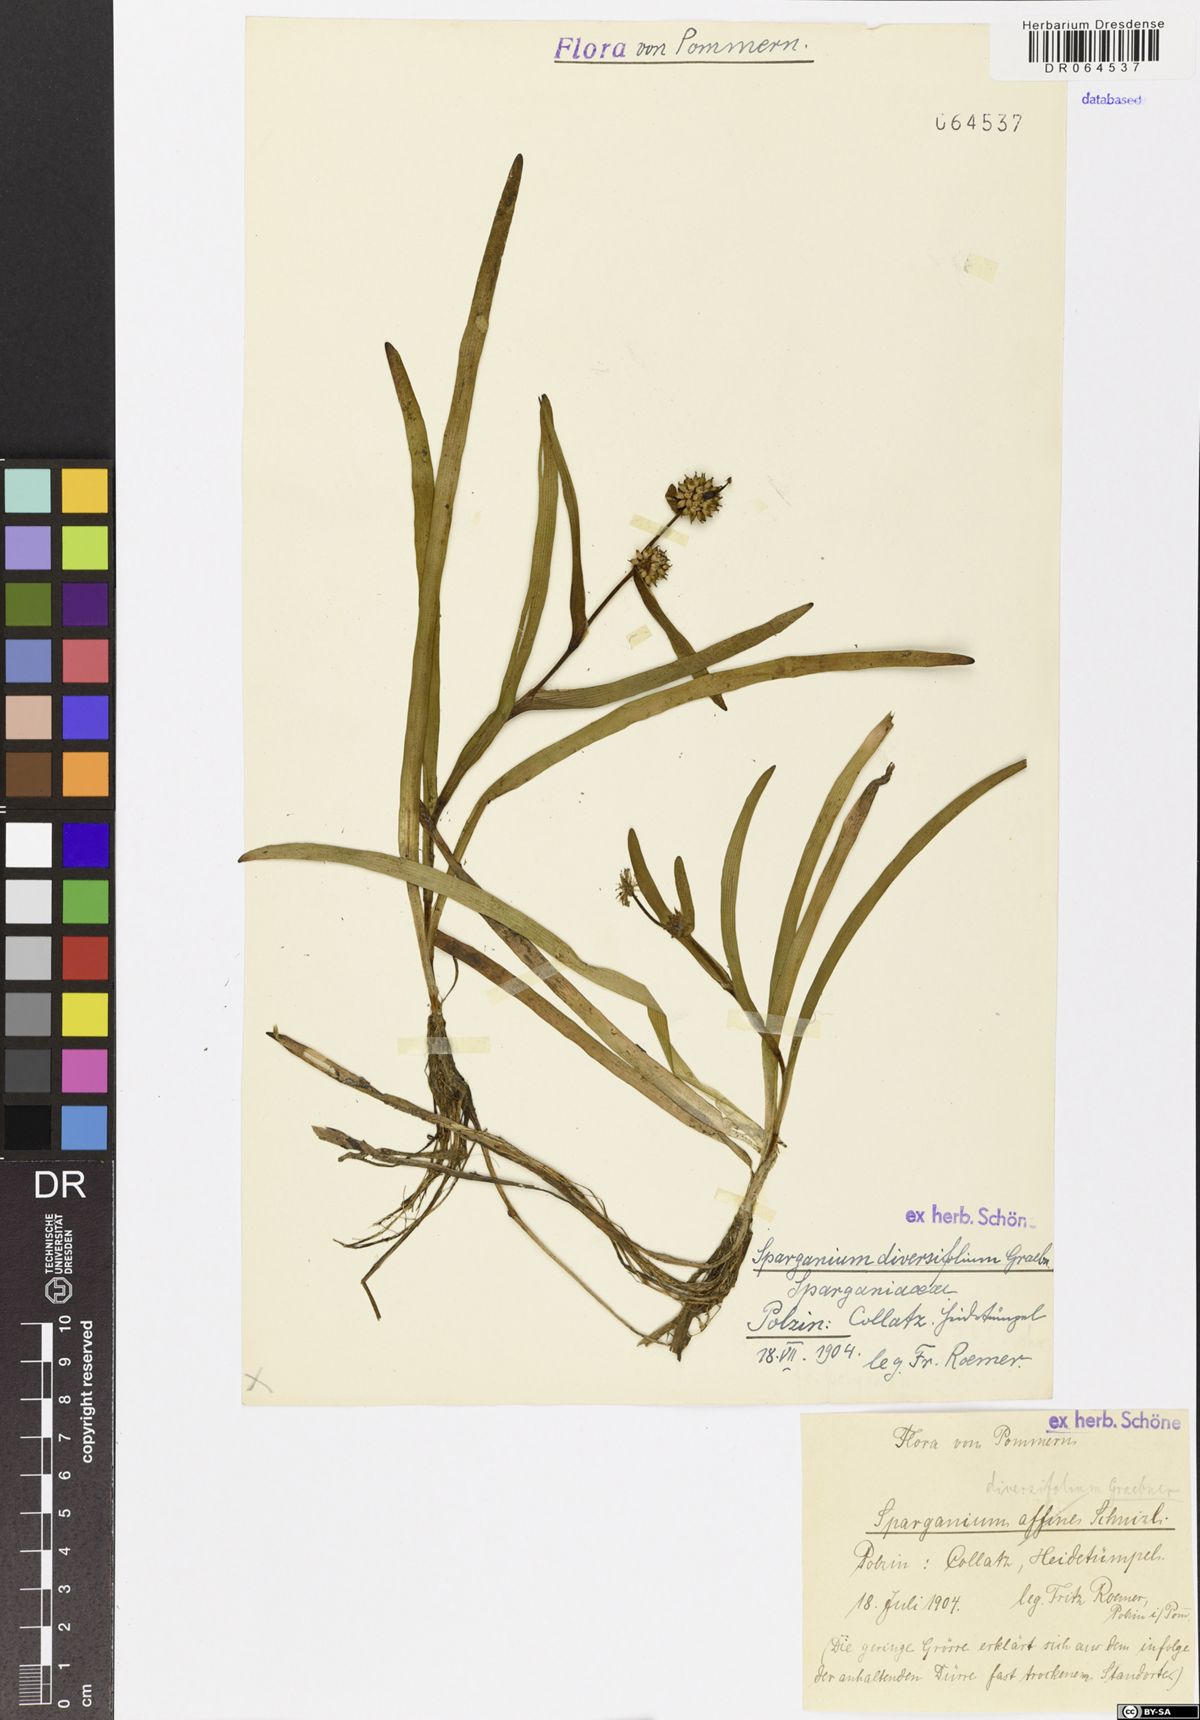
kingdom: Plantae
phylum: Tracheophyta
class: Liliopsida
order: Poales
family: Typhaceae
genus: Sparganium
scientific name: Sparganium splendens
